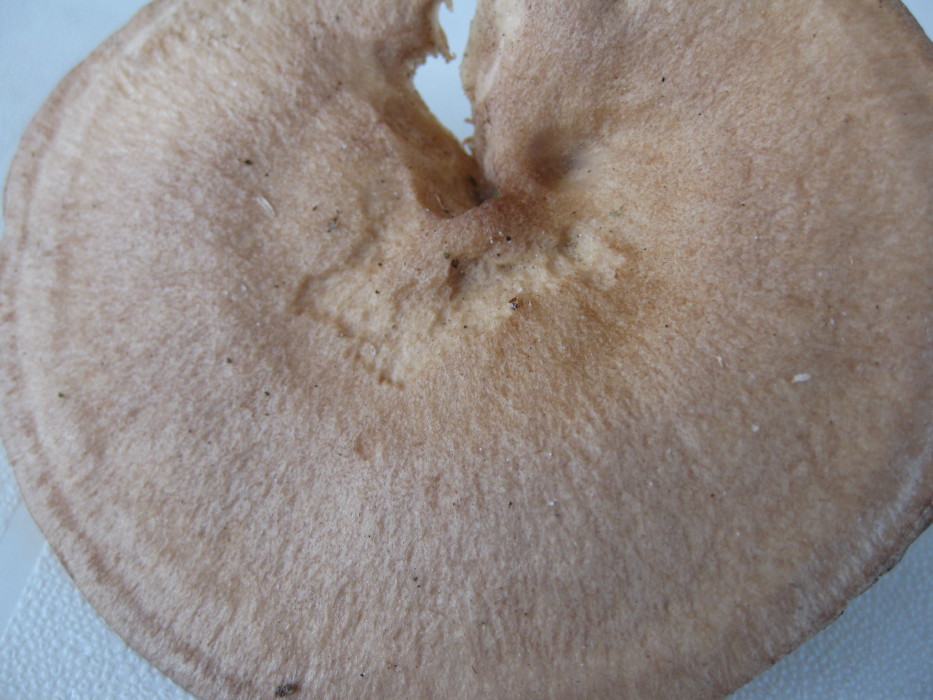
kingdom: Fungi
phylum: Basidiomycota
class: Agaricomycetes
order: Russulales
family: Russulaceae
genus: Lactarius
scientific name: Lactarius quietus
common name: ege-mælkehat
